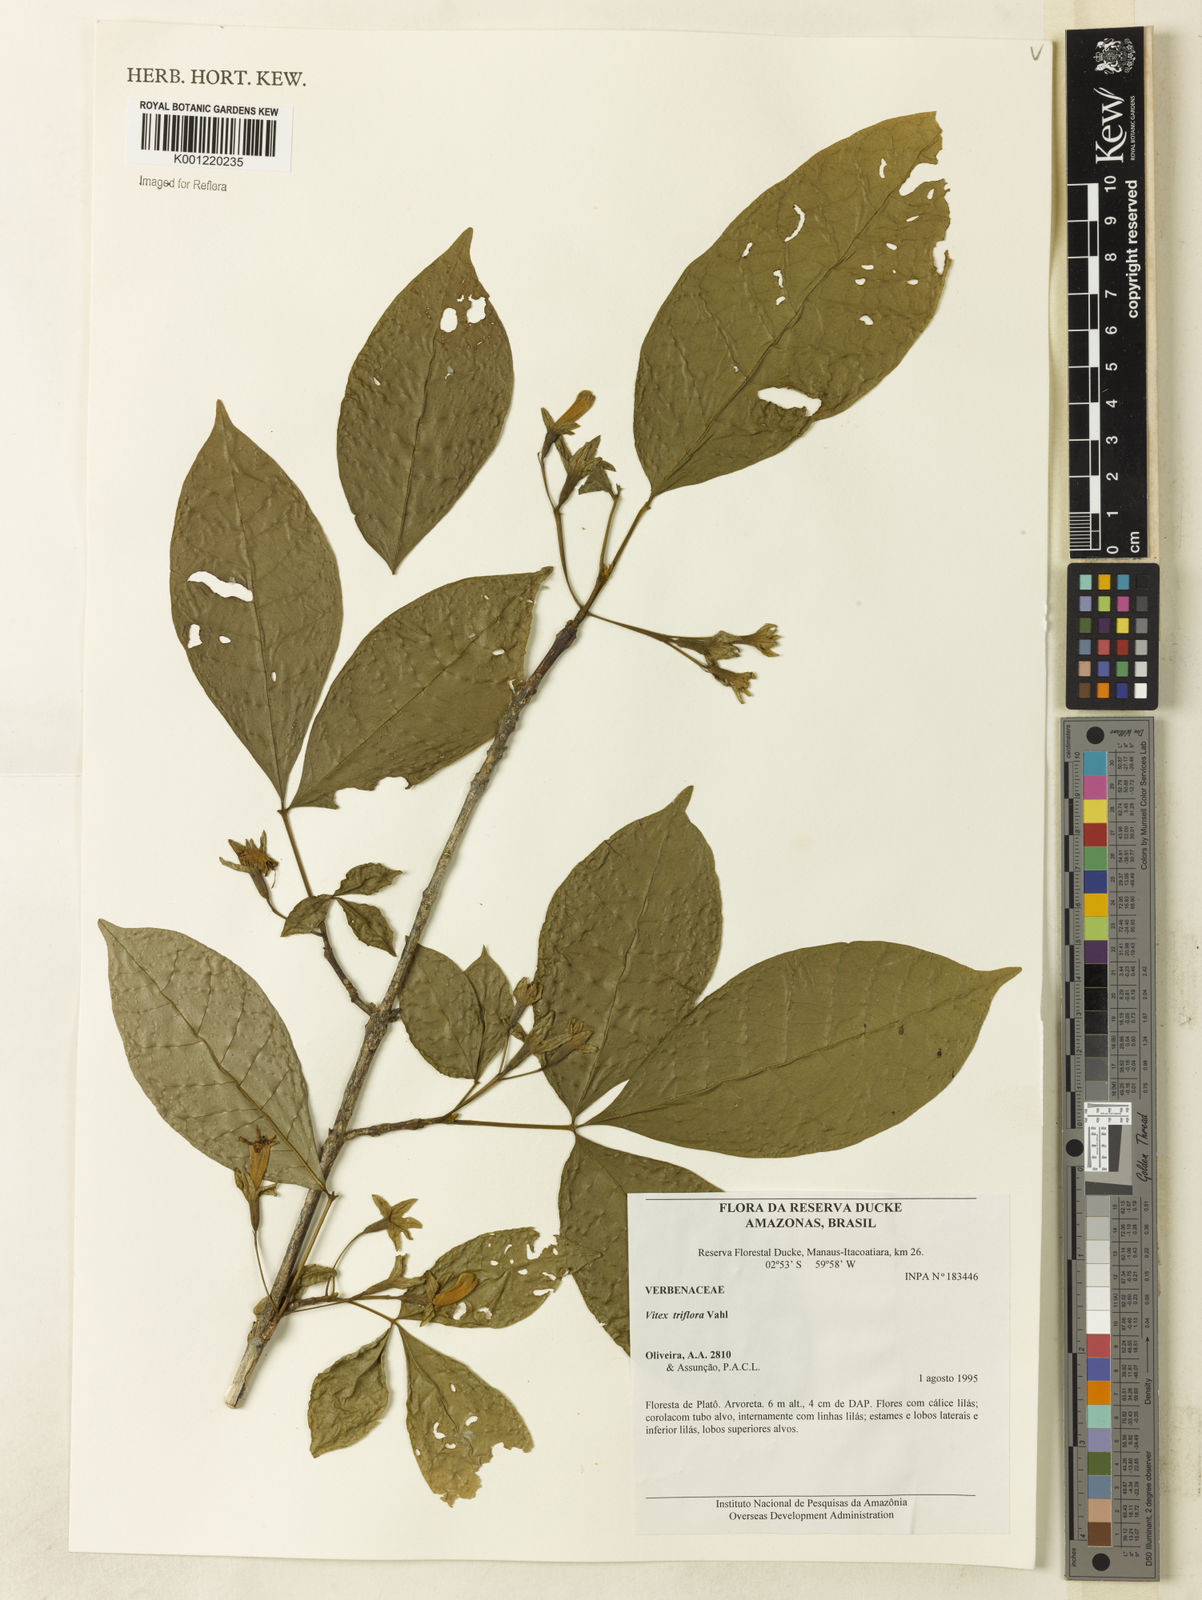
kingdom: Plantae
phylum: Tracheophyta
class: Magnoliopsida
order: Lamiales
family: Lamiaceae
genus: Vitex
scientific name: Vitex triflora
